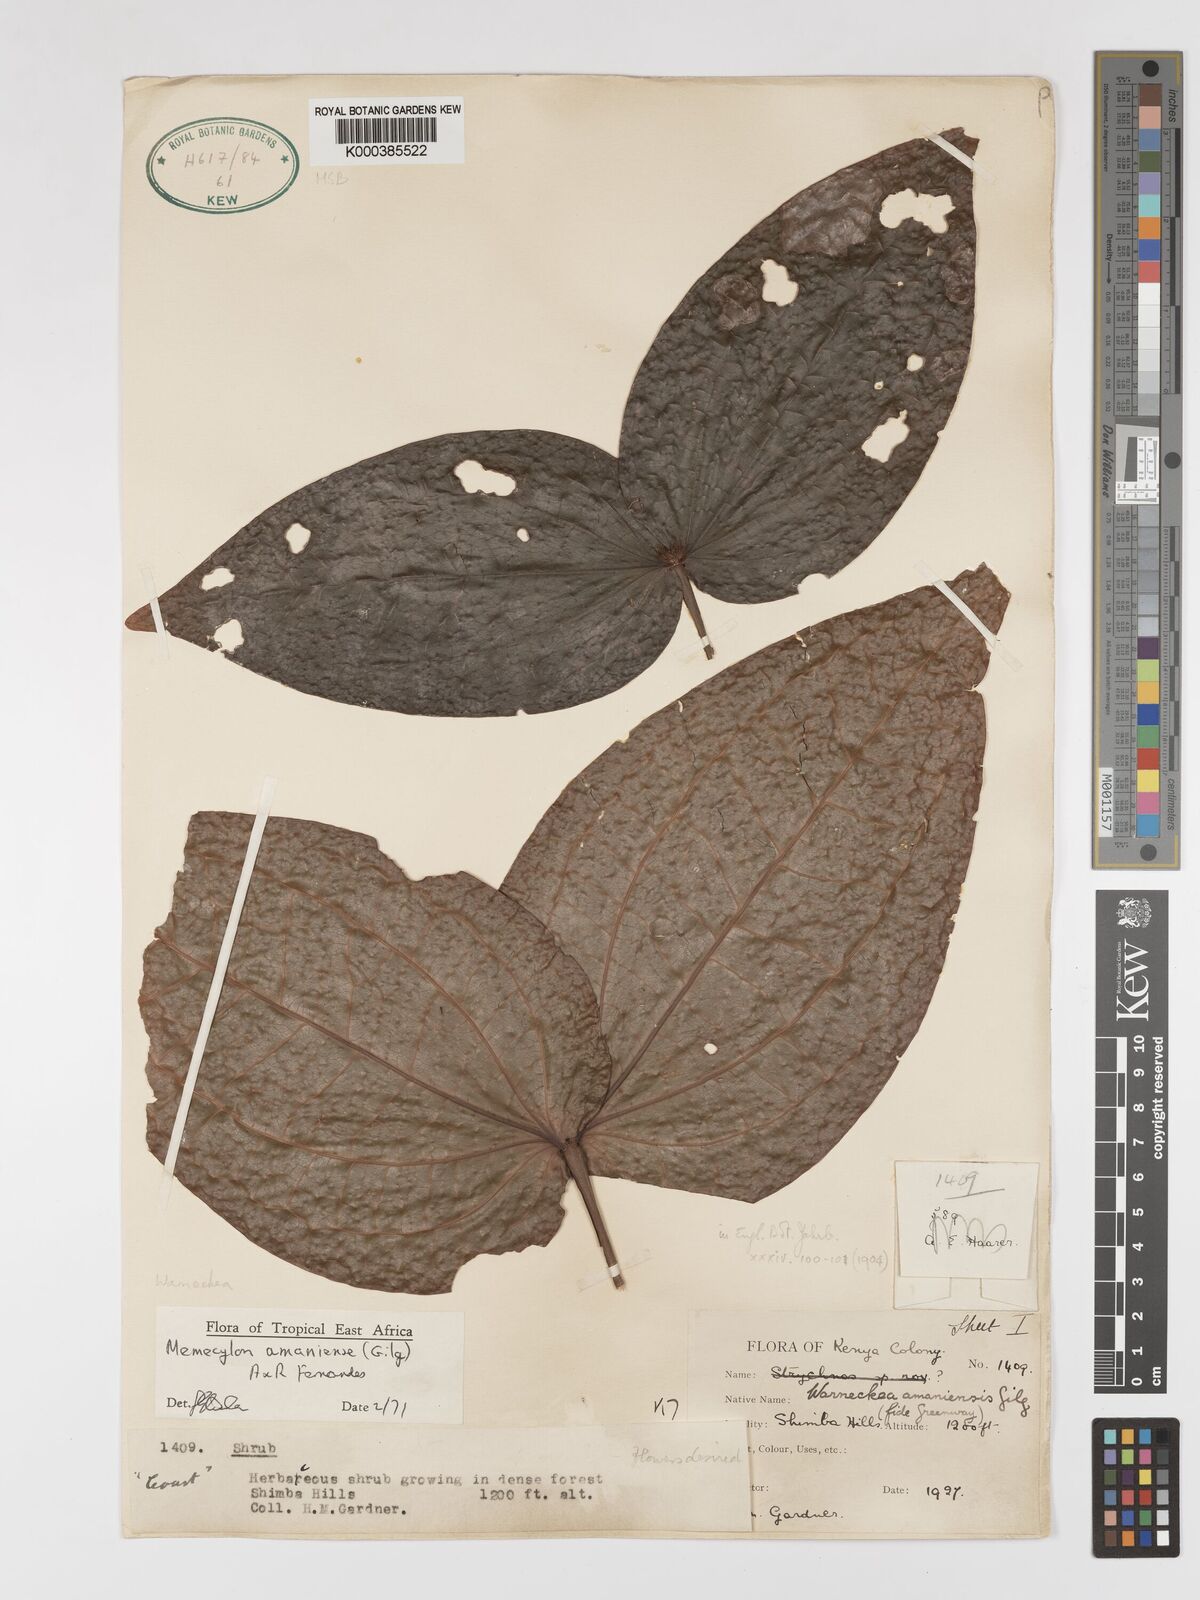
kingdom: Plantae
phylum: Tracheophyta
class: Magnoliopsida
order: Myrtales
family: Melastomataceae
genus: Warneckea
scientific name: Warneckea amaniensis
